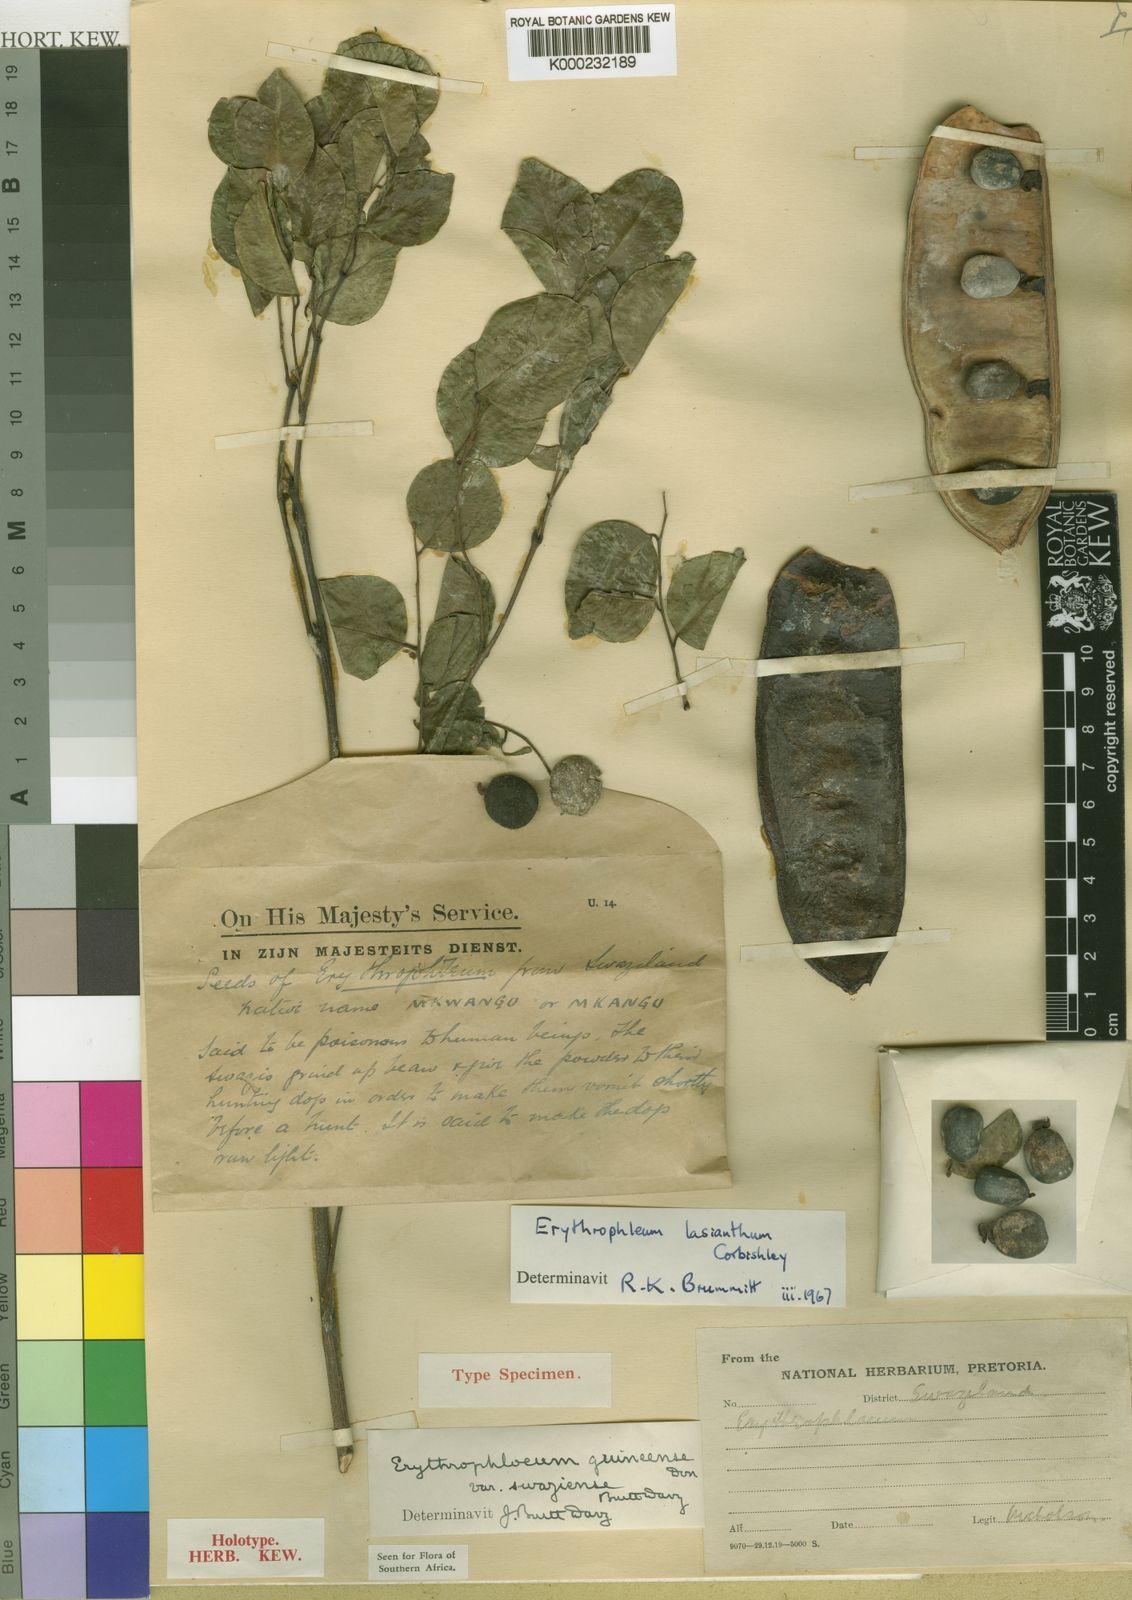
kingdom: Plantae
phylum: Tracheophyta
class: Magnoliopsida
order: Fabales
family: Fabaceae
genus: Erythrophleum
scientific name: Erythrophleum lasianthum
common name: Maputaland ordeal tree
